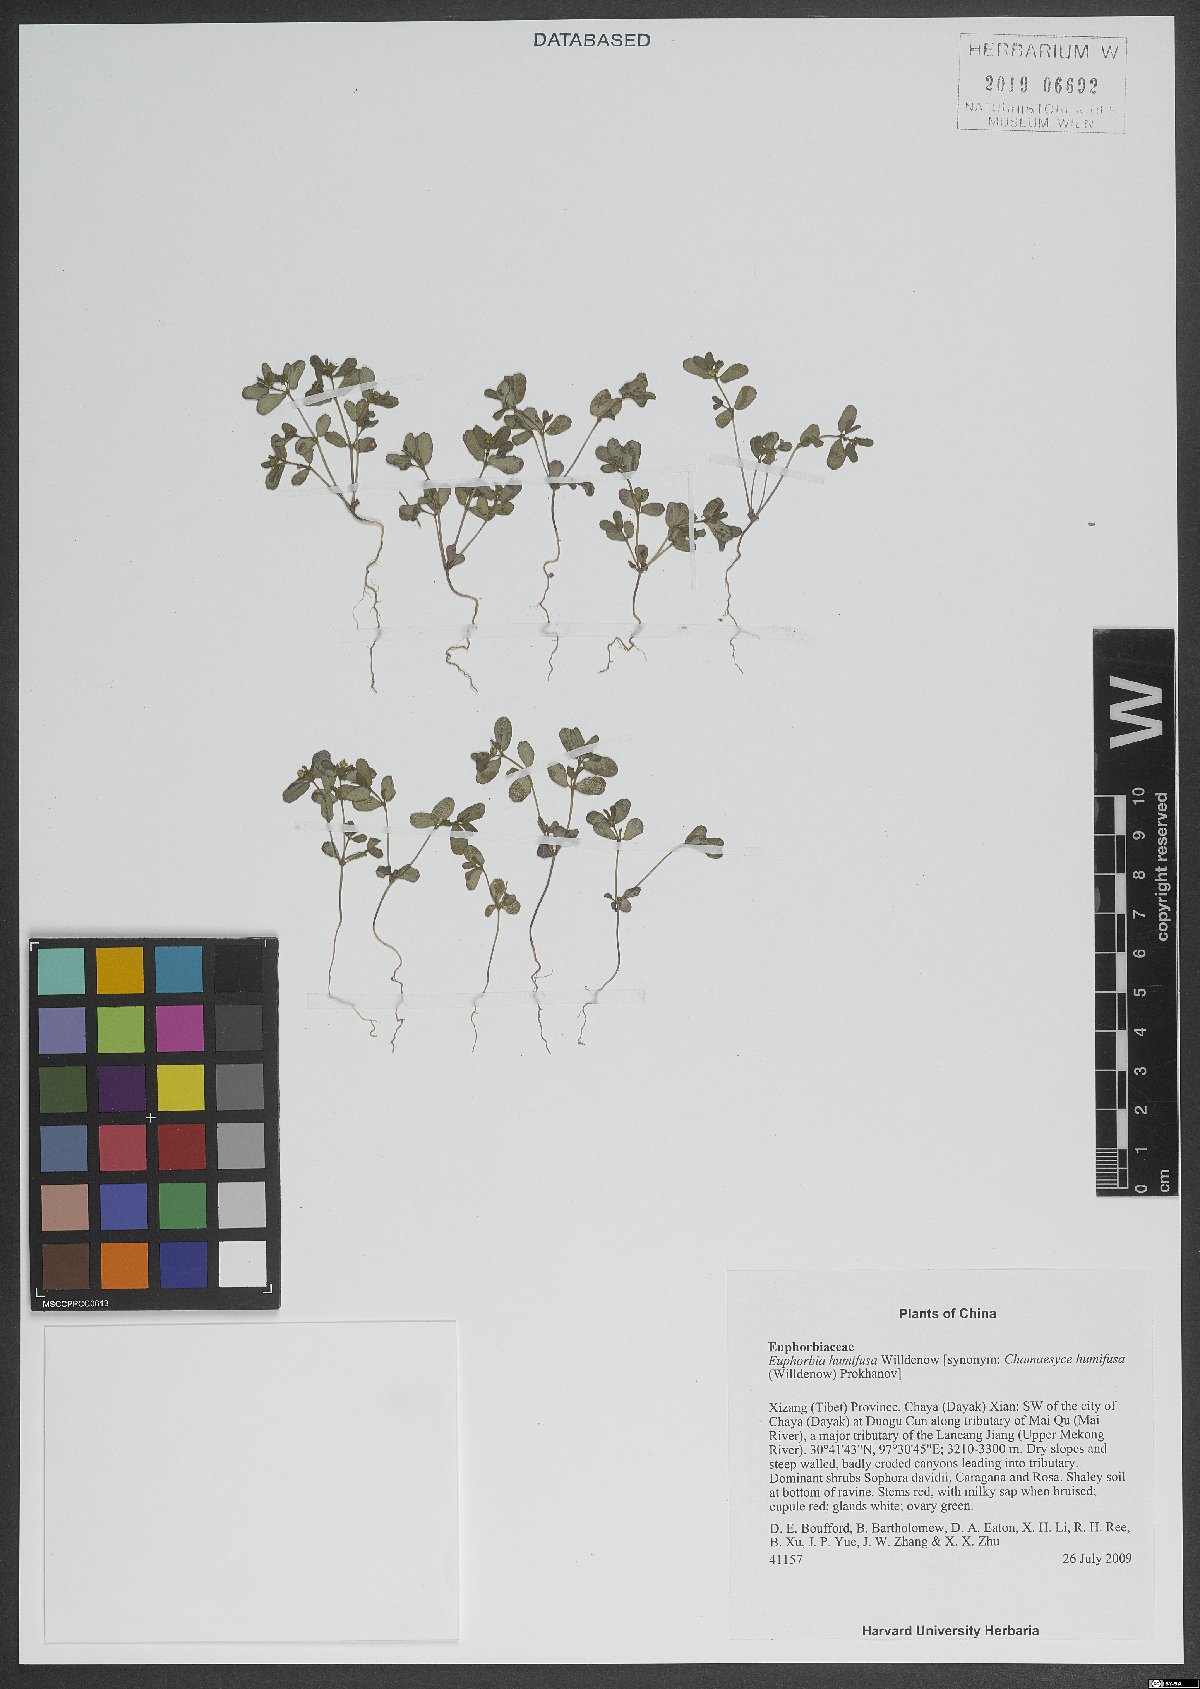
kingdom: Plantae
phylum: Tracheophyta
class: Magnoliopsida
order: Malpighiales
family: Euphorbiaceae
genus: Euphorbia
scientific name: Euphorbia humifusa
